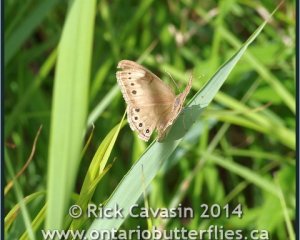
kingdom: Animalia
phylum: Arthropoda
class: Insecta
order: Lepidoptera
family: Nymphalidae
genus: Lethe
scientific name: Lethe eurydice
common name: Eyed Brown
